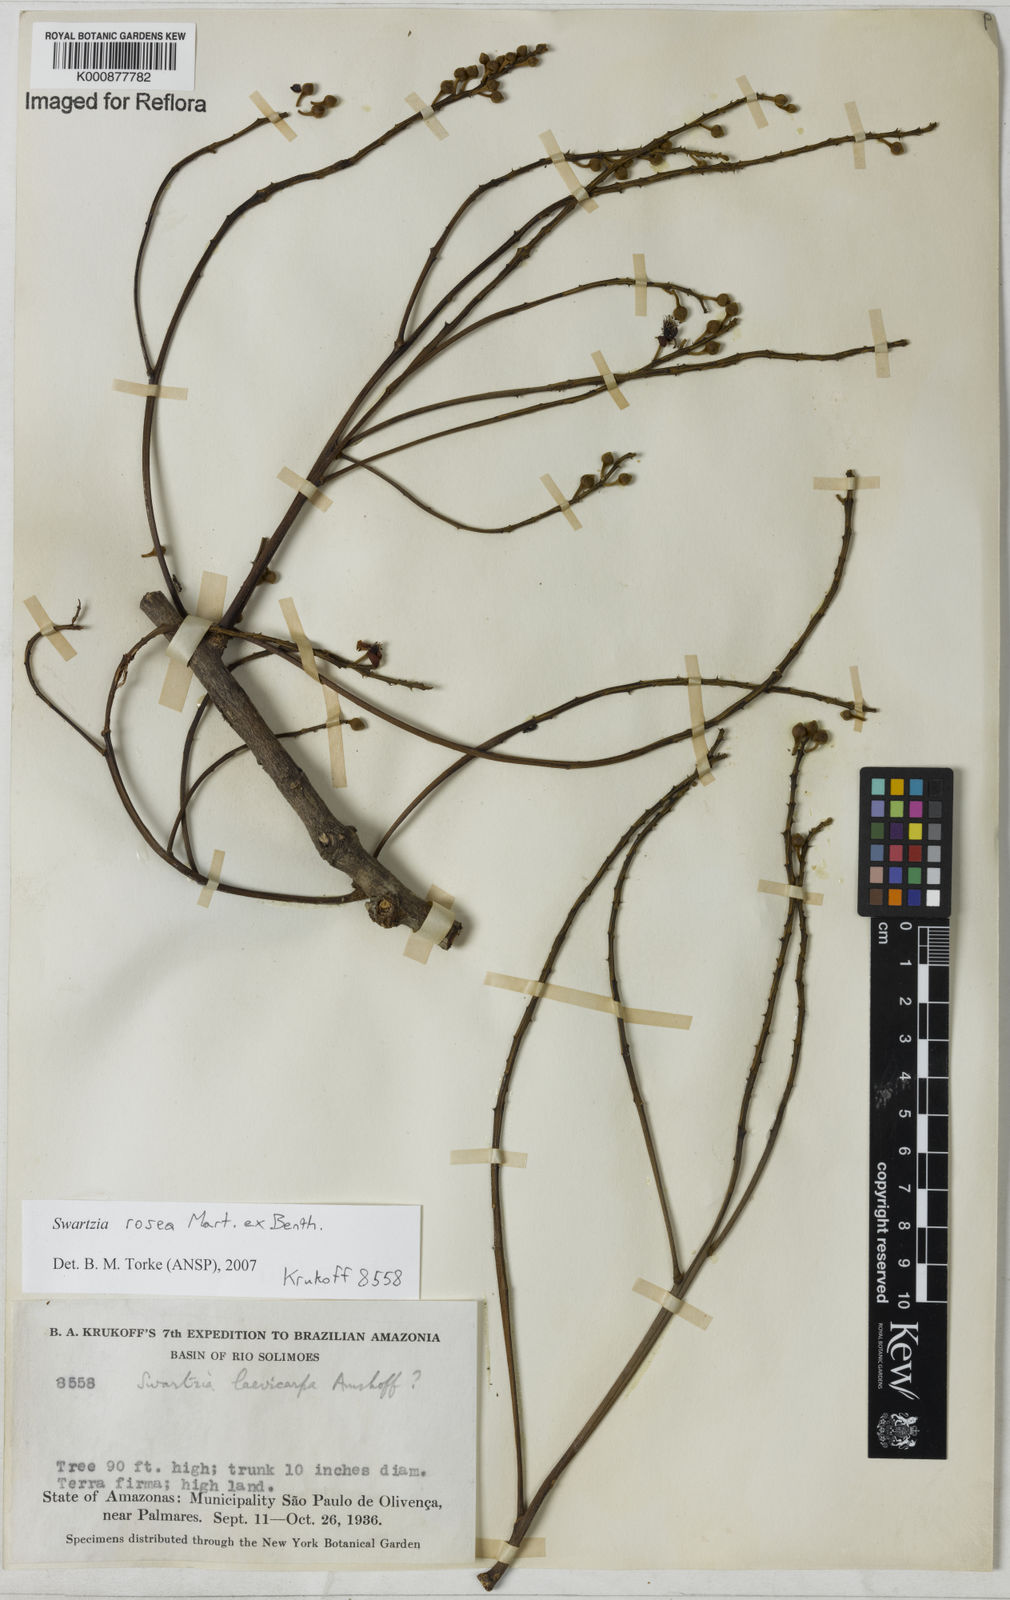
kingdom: Plantae
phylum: Tracheophyta
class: Magnoliopsida
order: Fabales
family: Fabaceae
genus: Swartzia
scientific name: Swartzia rosea
